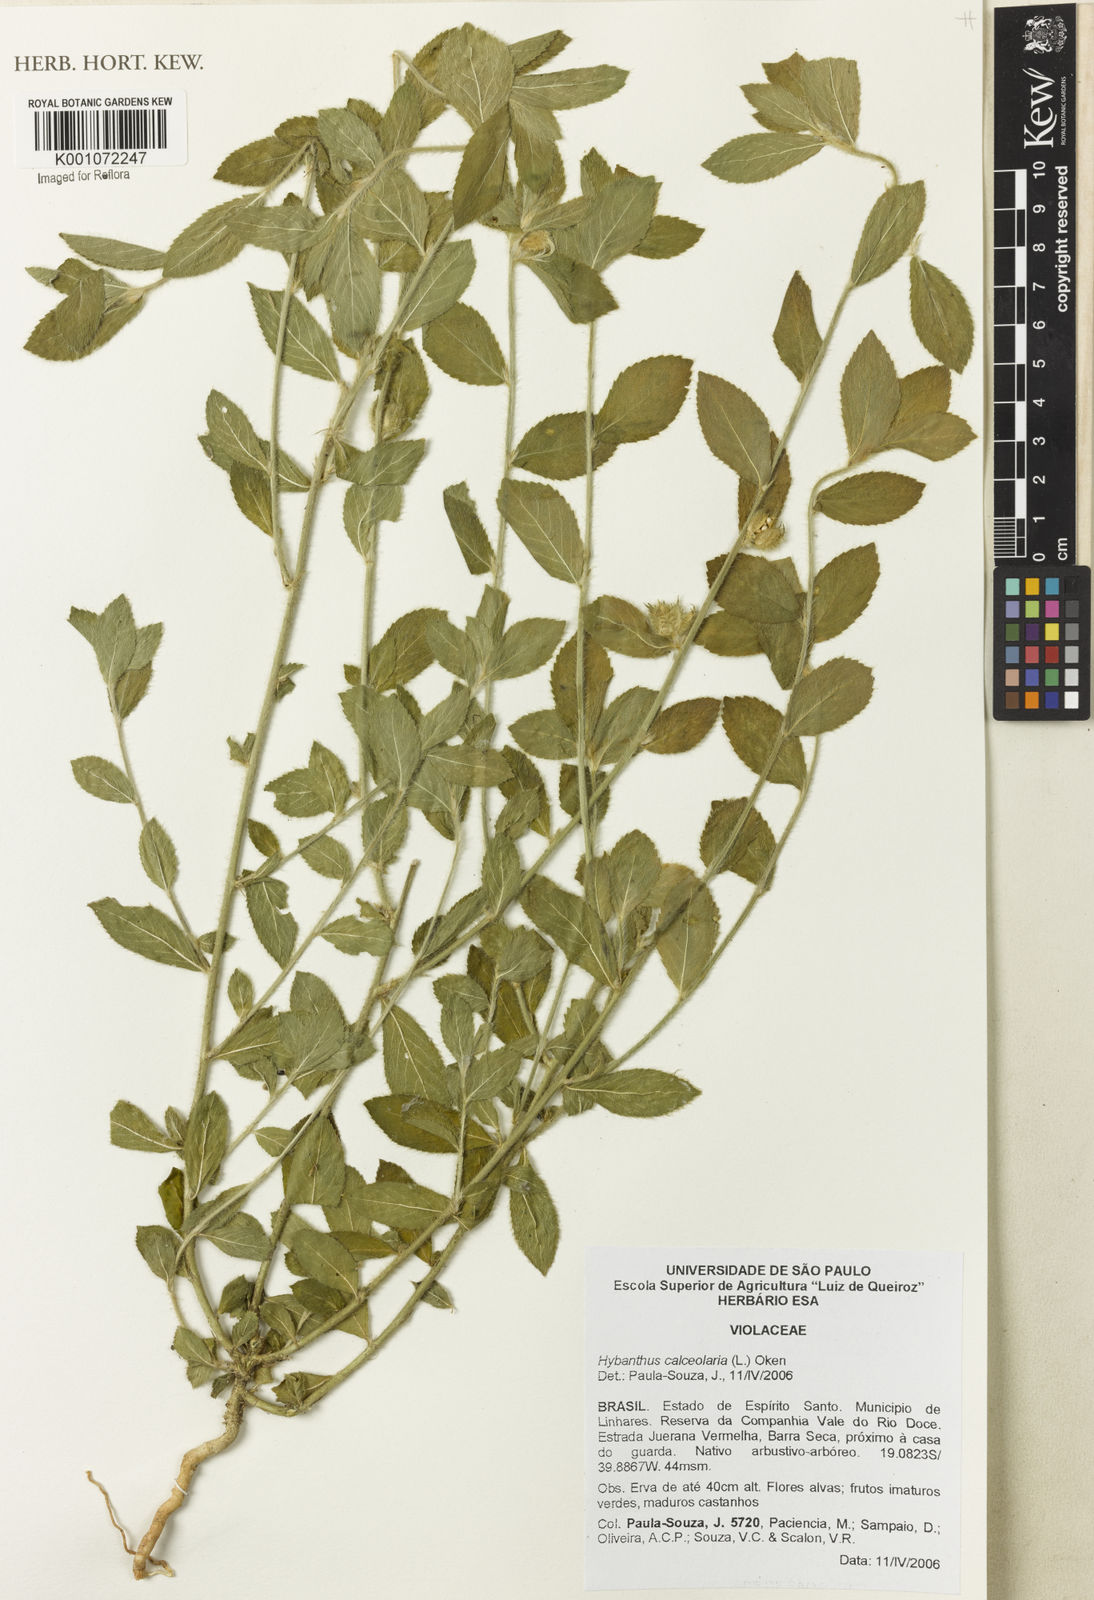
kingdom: Plantae
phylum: Tracheophyta
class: Magnoliopsida
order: Malpighiales
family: Violaceae
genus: Pombalia
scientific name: Pombalia calceolaria
